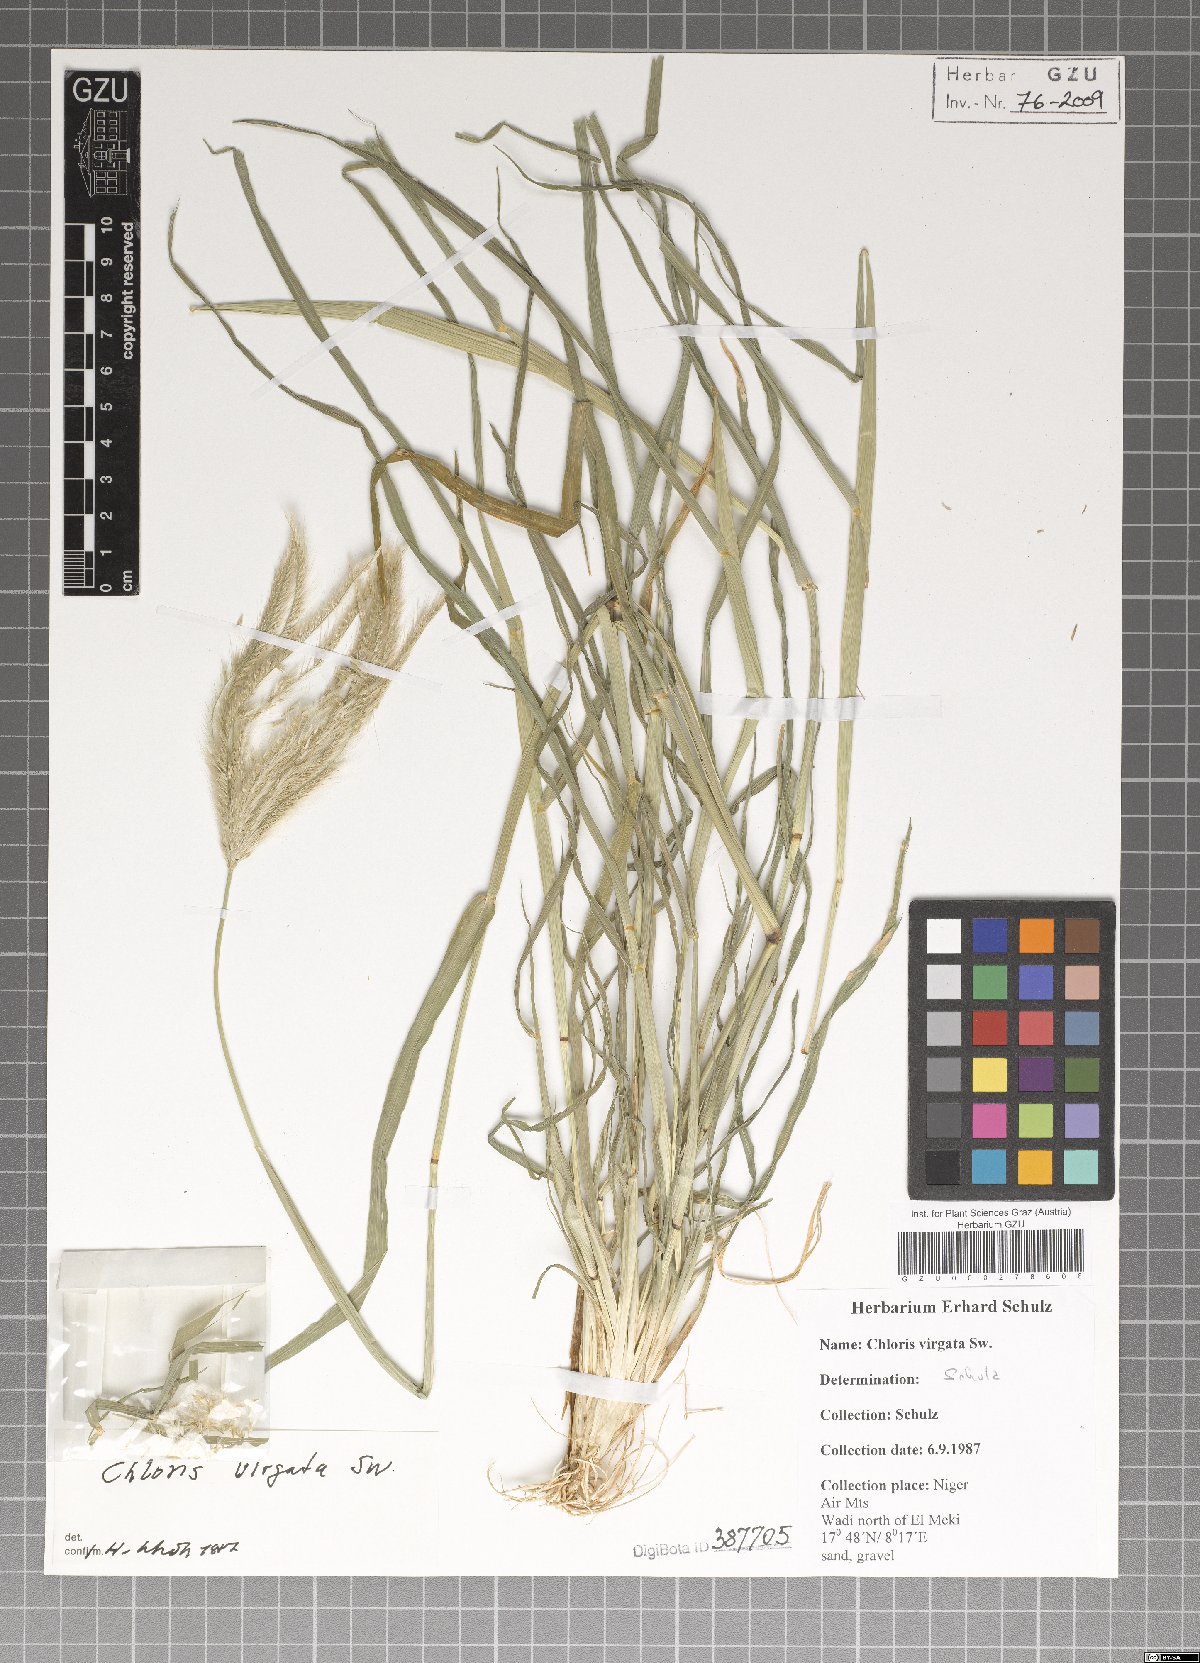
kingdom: Plantae
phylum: Tracheophyta
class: Liliopsida
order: Poales
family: Poaceae
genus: Chloris
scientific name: Chloris virgata
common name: Feathery rhodes-grass
